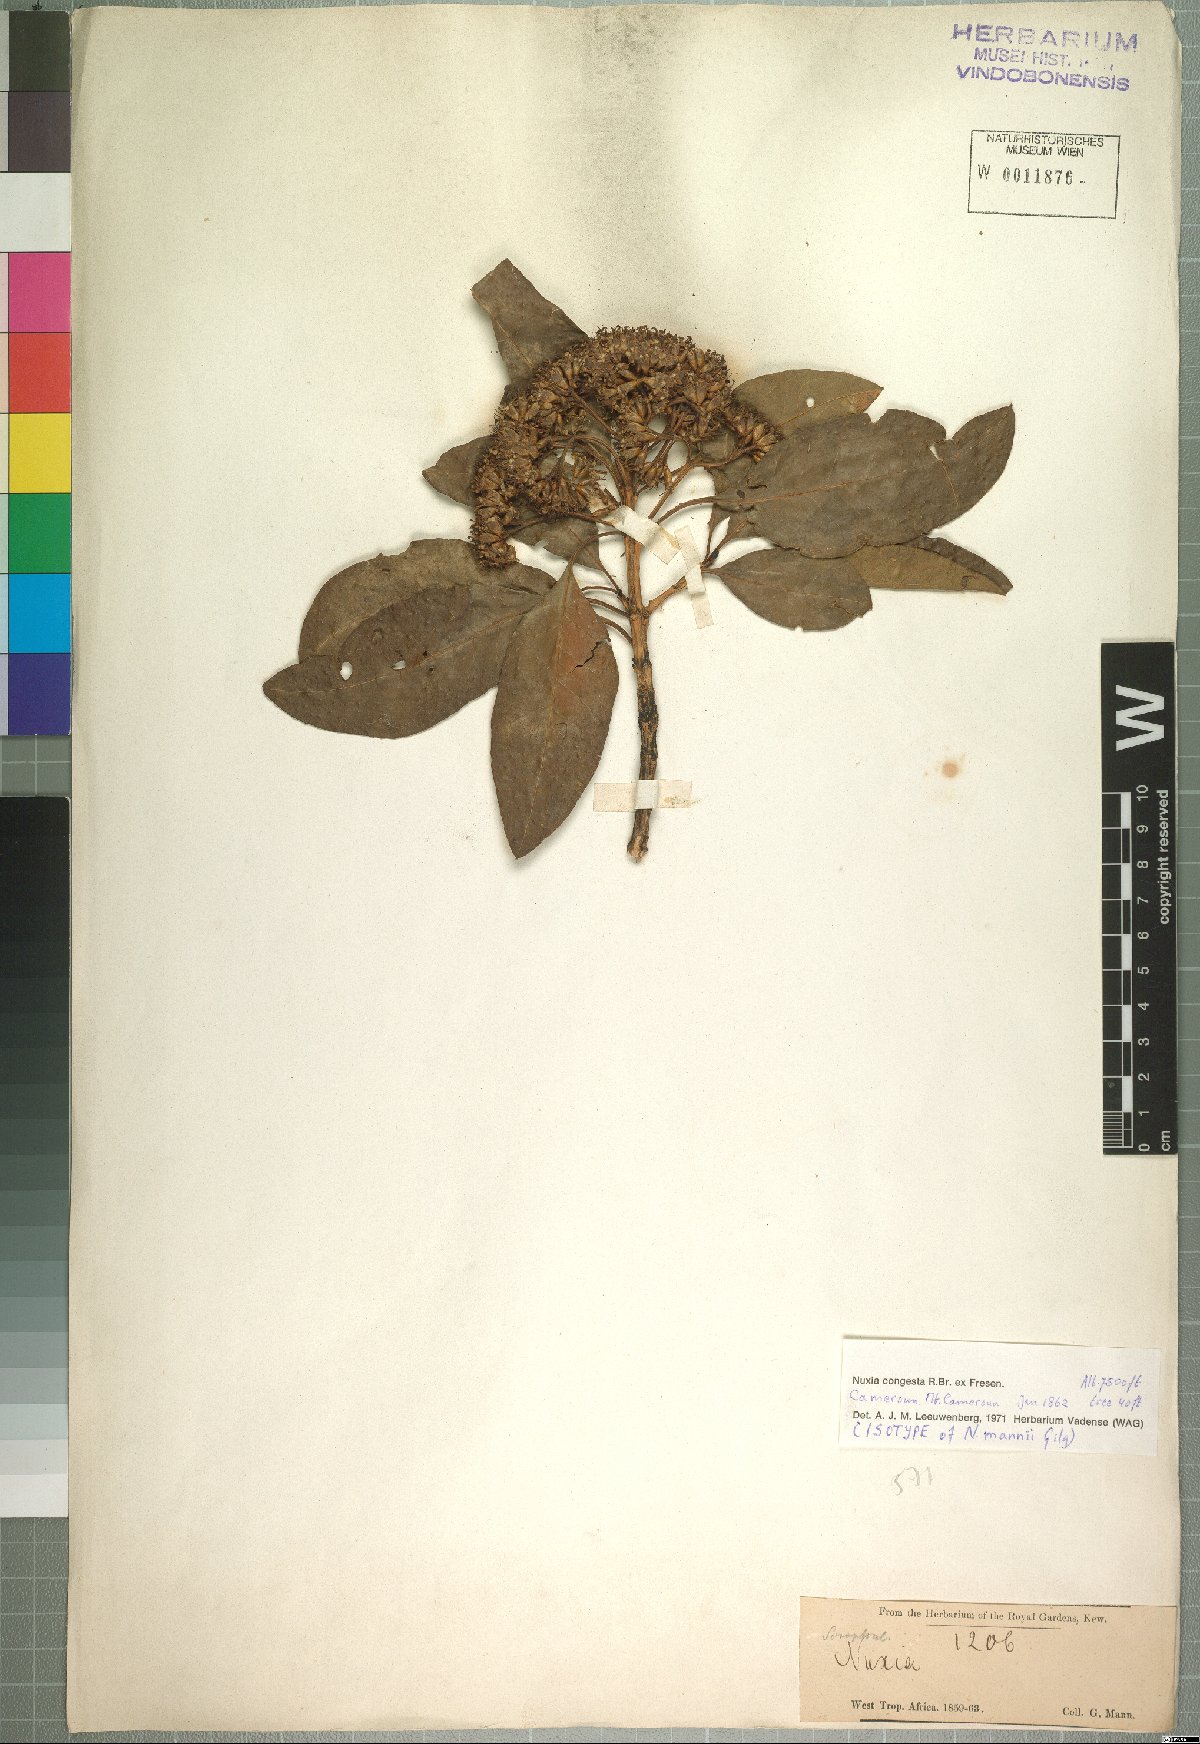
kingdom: Plantae
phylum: Tracheophyta
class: Magnoliopsida
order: Lamiales
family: Stilbaceae
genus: Nuxia
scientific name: Nuxia congesta
